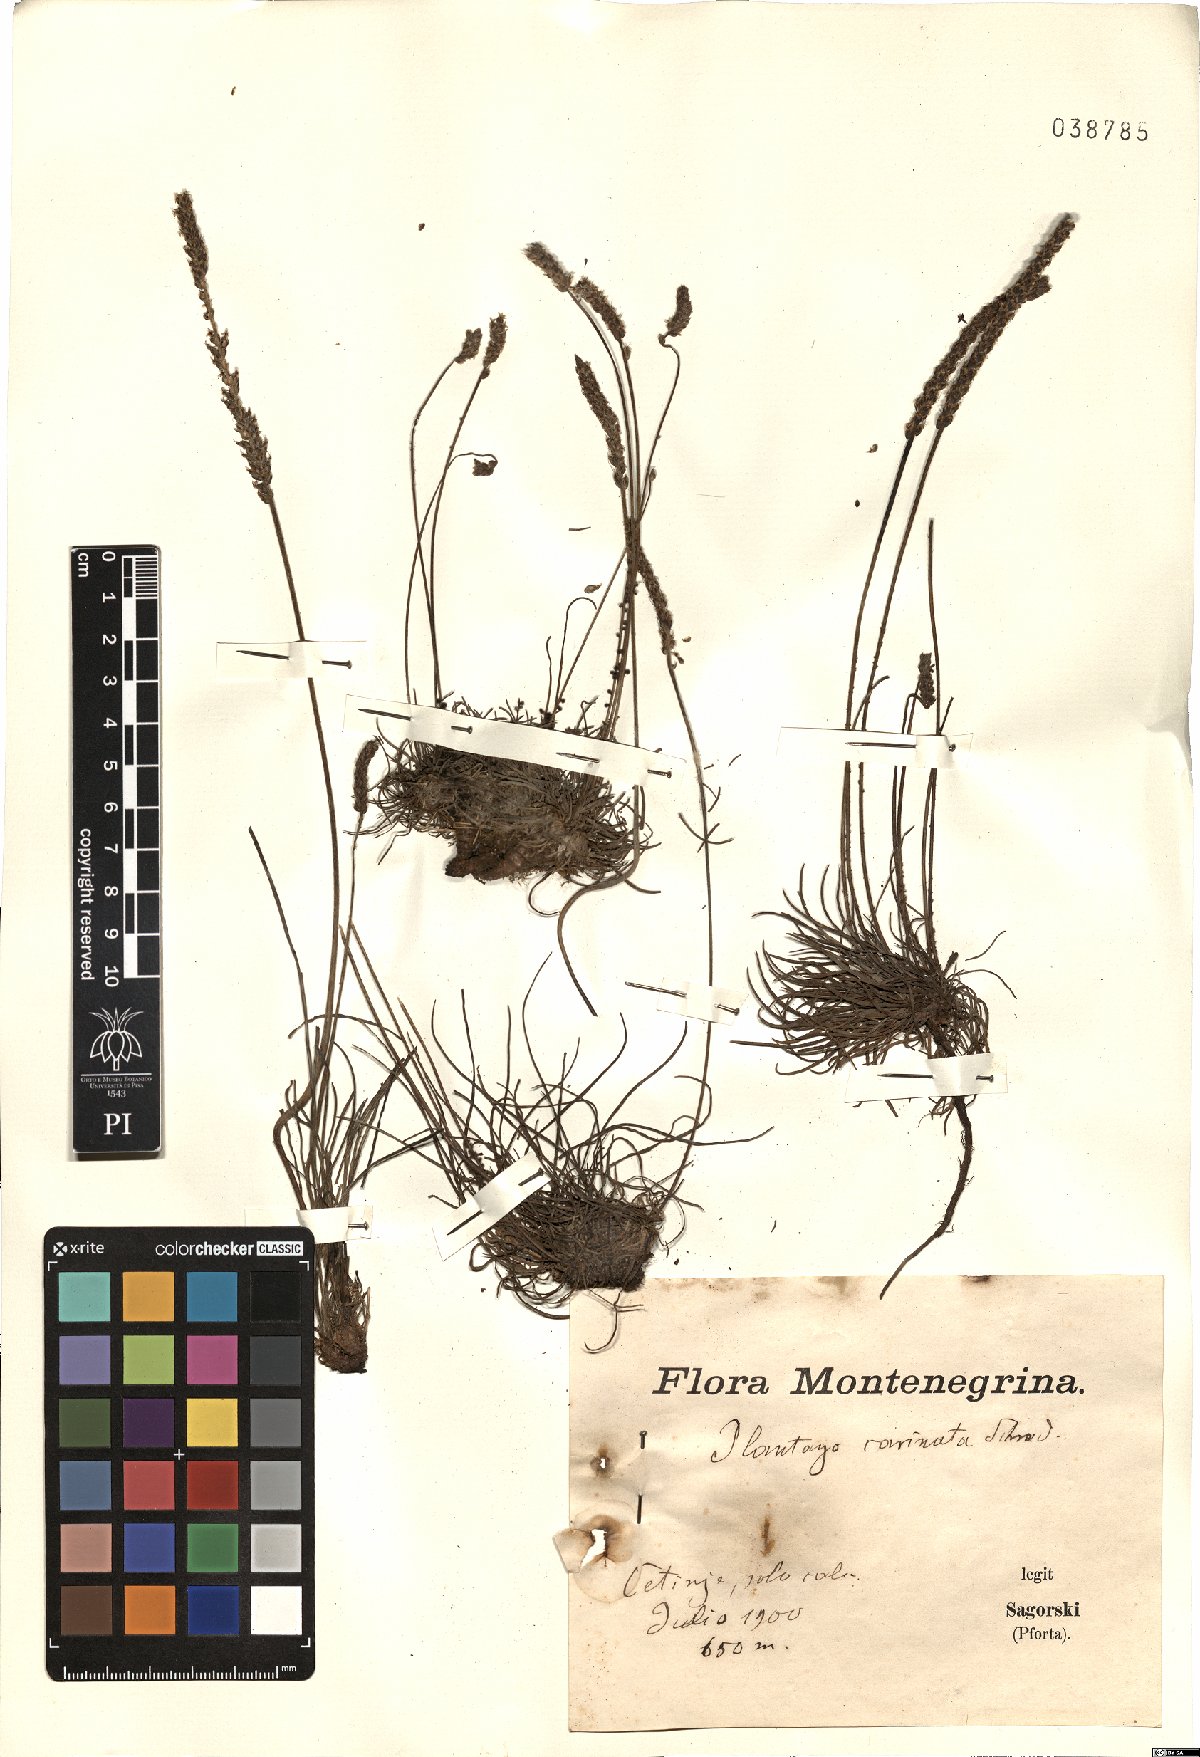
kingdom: Plantae
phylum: Tracheophyta
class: Magnoliopsida
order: Lamiales
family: Plantaginaceae
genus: Plantago
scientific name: Plantago subulata
